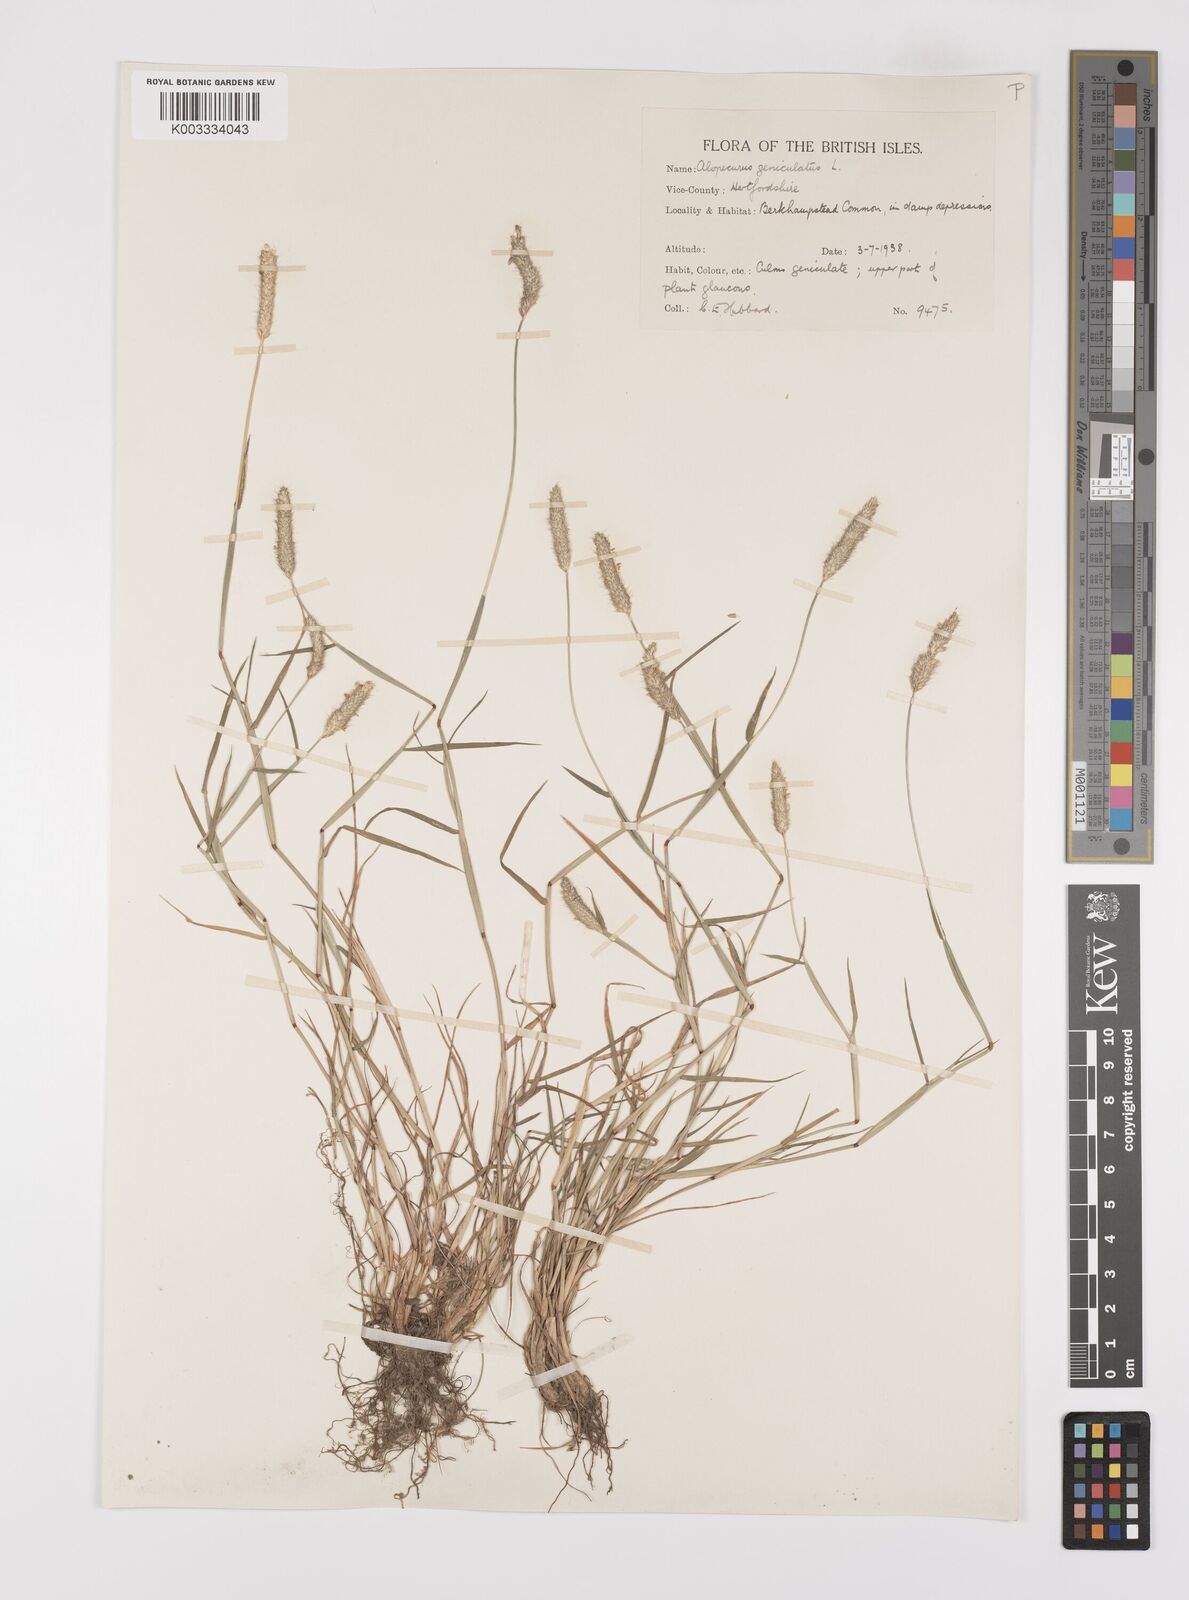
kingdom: Plantae
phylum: Tracheophyta
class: Liliopsida
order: Poales
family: Poaceae
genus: Alopecurus
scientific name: Alopecurus geniculatus
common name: Water foxtail
